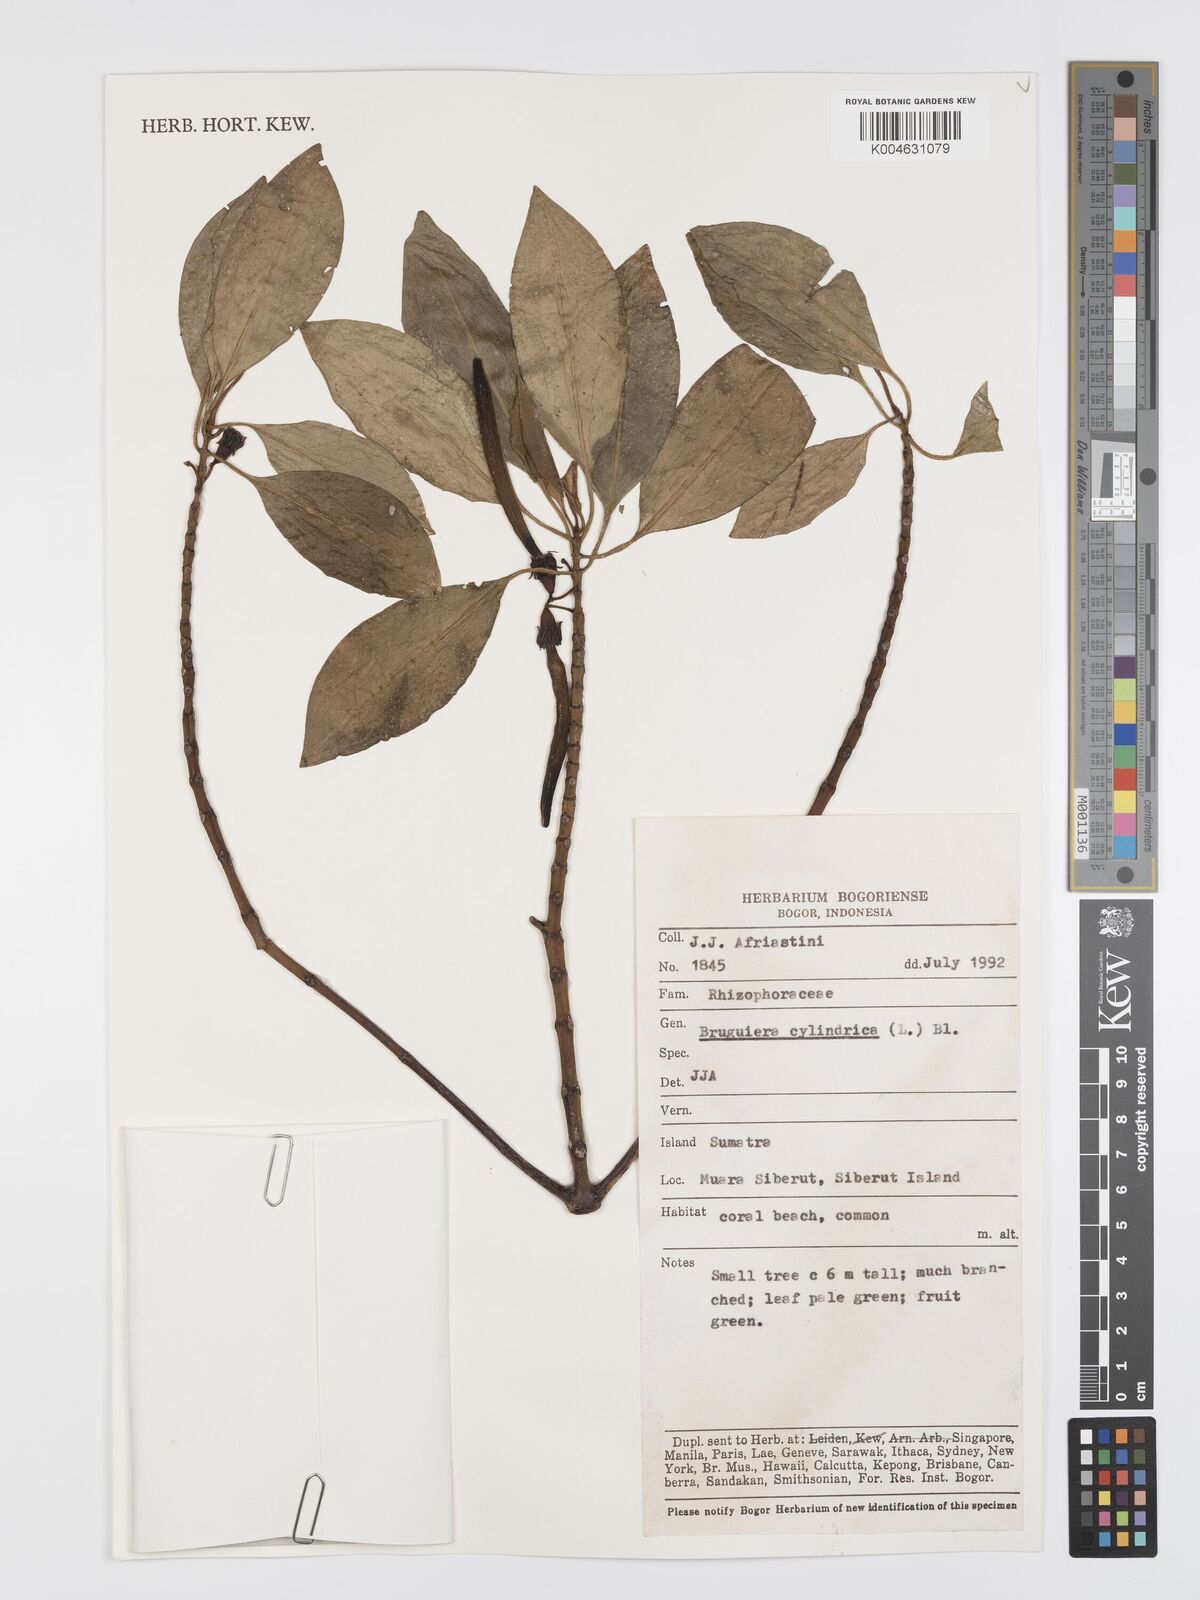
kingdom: Plantae
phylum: Tracheophyta
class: Magnoliopsida
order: Malpighiales
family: Rhizophoraceae
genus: Bruguiera
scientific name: Bruguiera cylindrica
